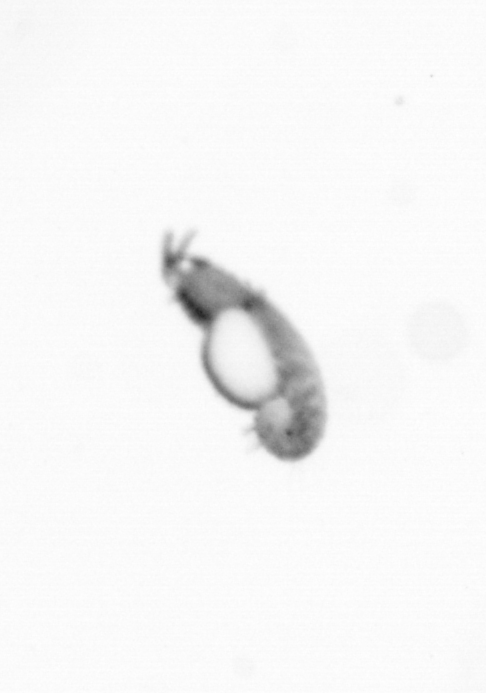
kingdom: Animalia
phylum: Annelida
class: Polychaeta
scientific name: Polychaeta
